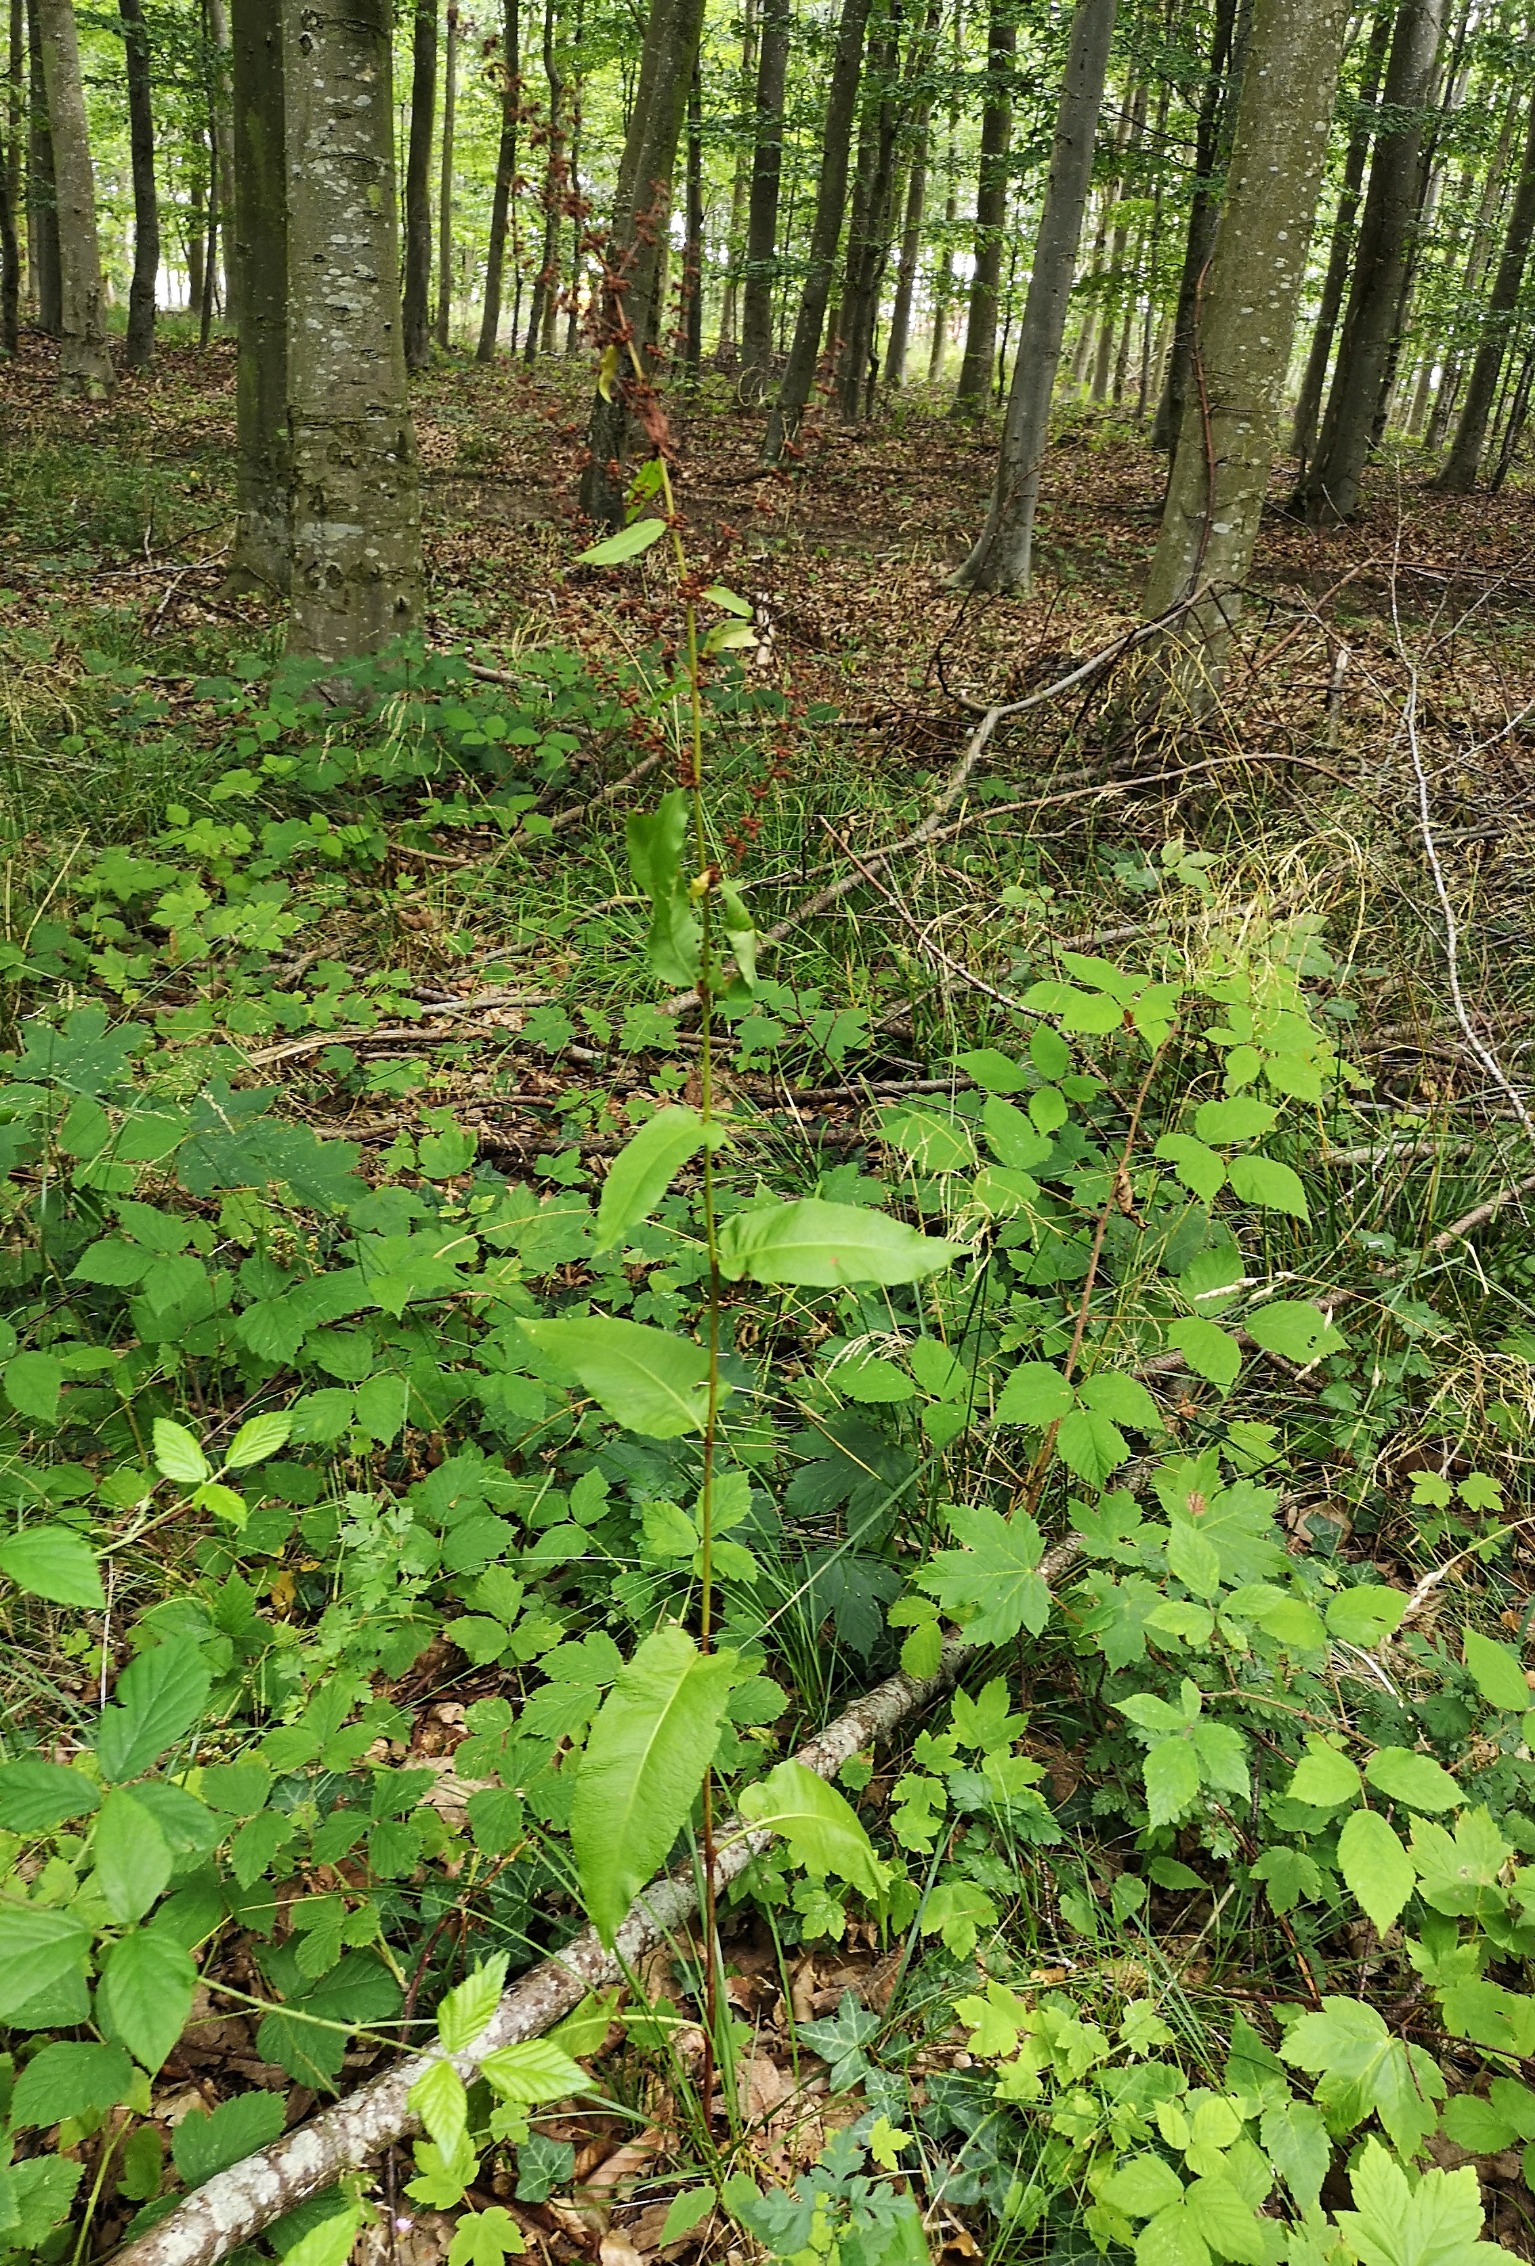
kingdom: Plantae
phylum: Tracheophyta
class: Magnoliopsida
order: Caryophyllales
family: Polygonaceae
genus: Rumex
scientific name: Rumex sanguineus
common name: Skov-skræppe
